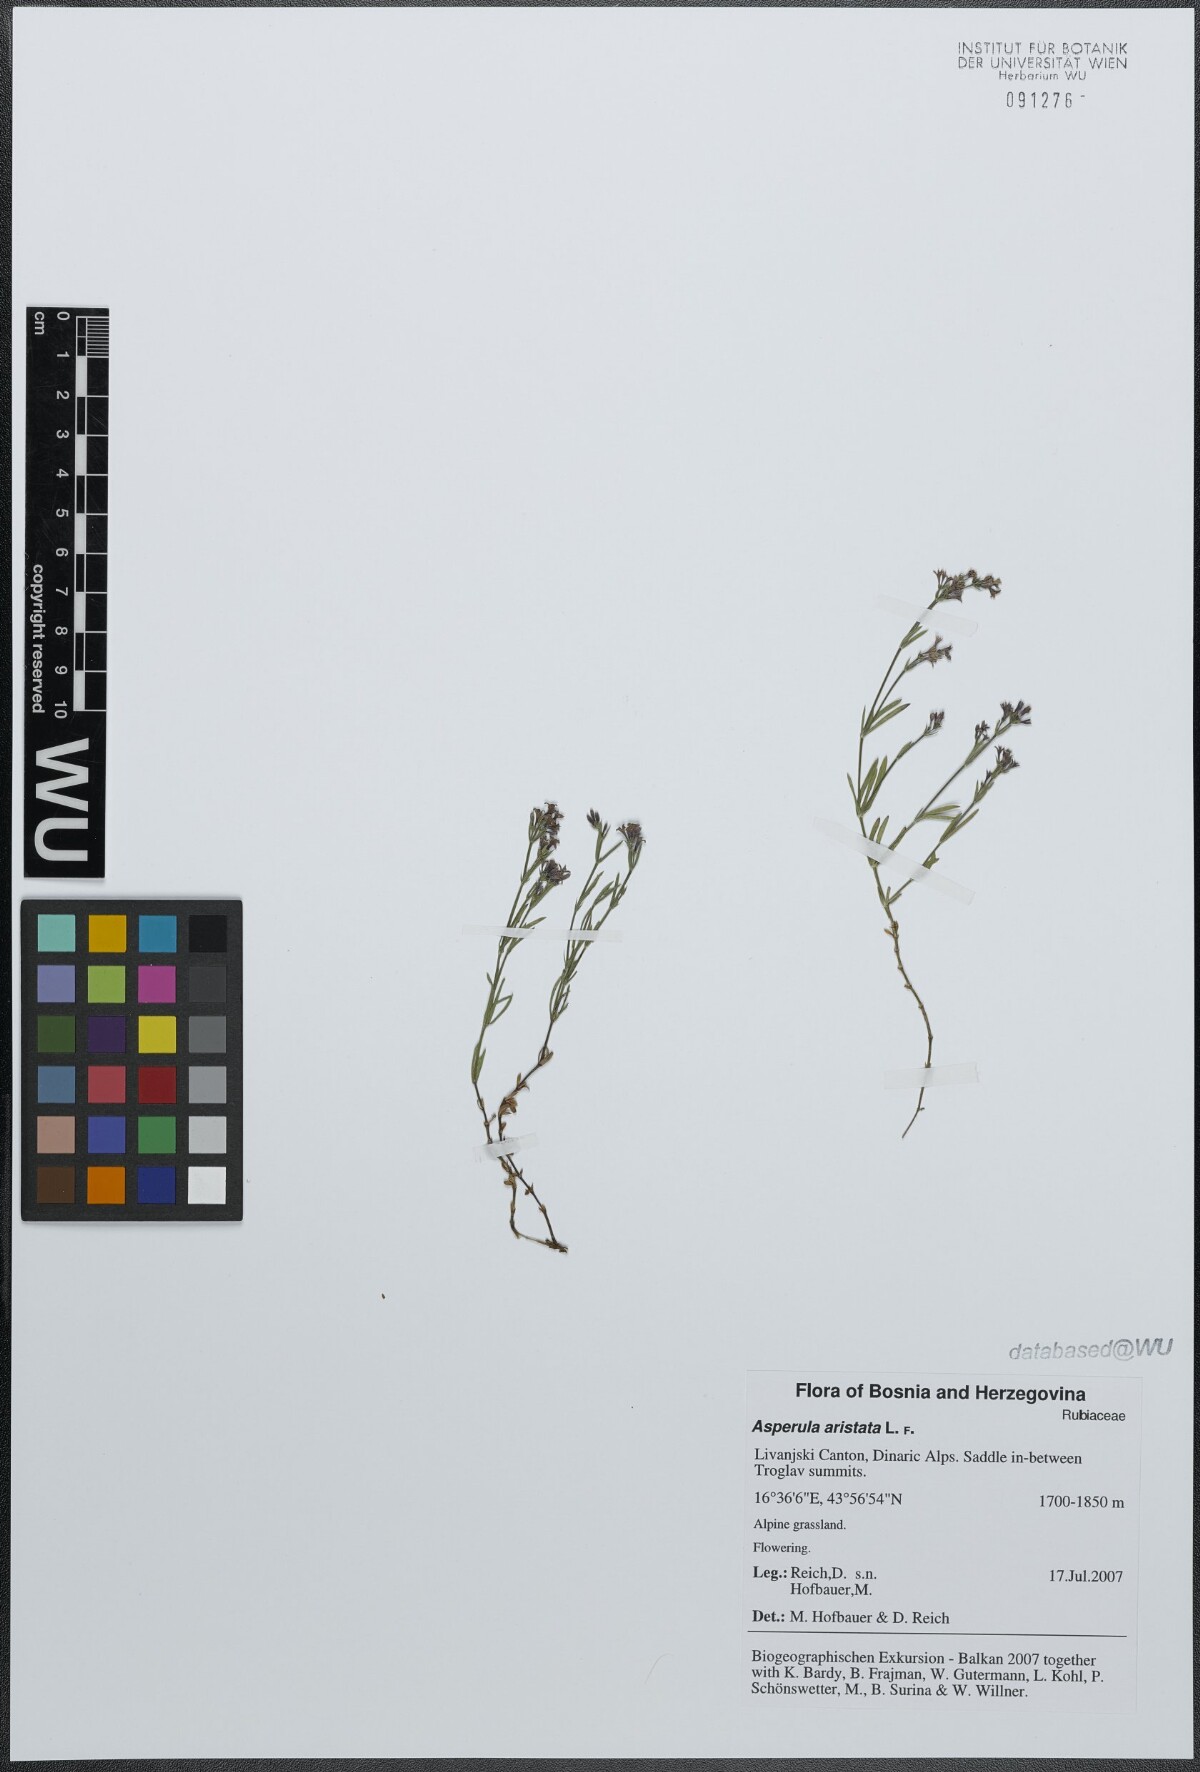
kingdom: Plantae
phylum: Tracheophyta
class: Magnoliopsida
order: Gentianales
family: Rubiaceae
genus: Cynanchica
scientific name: Cynanchica aristata
